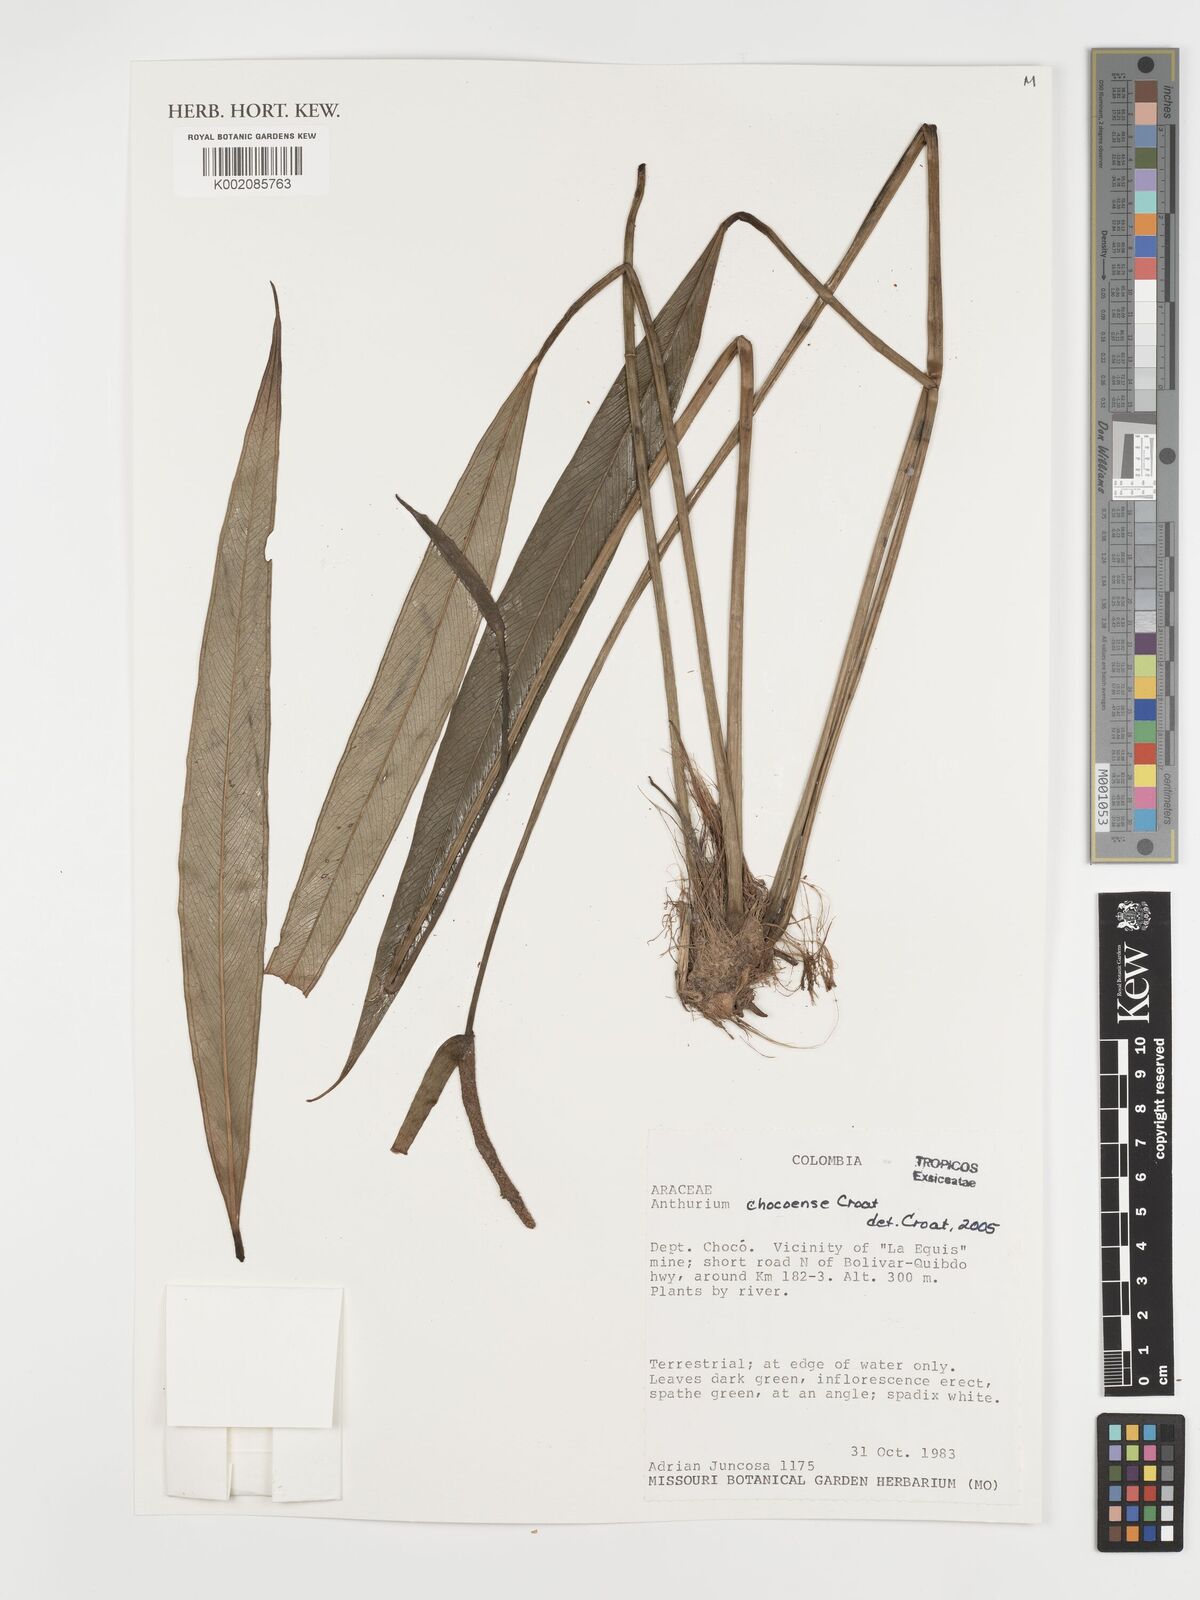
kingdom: Plantae
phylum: Tracheophyta
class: Liliopsida
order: Alismatales
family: Araceae
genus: Anthurium
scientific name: Anthurium chocoense
